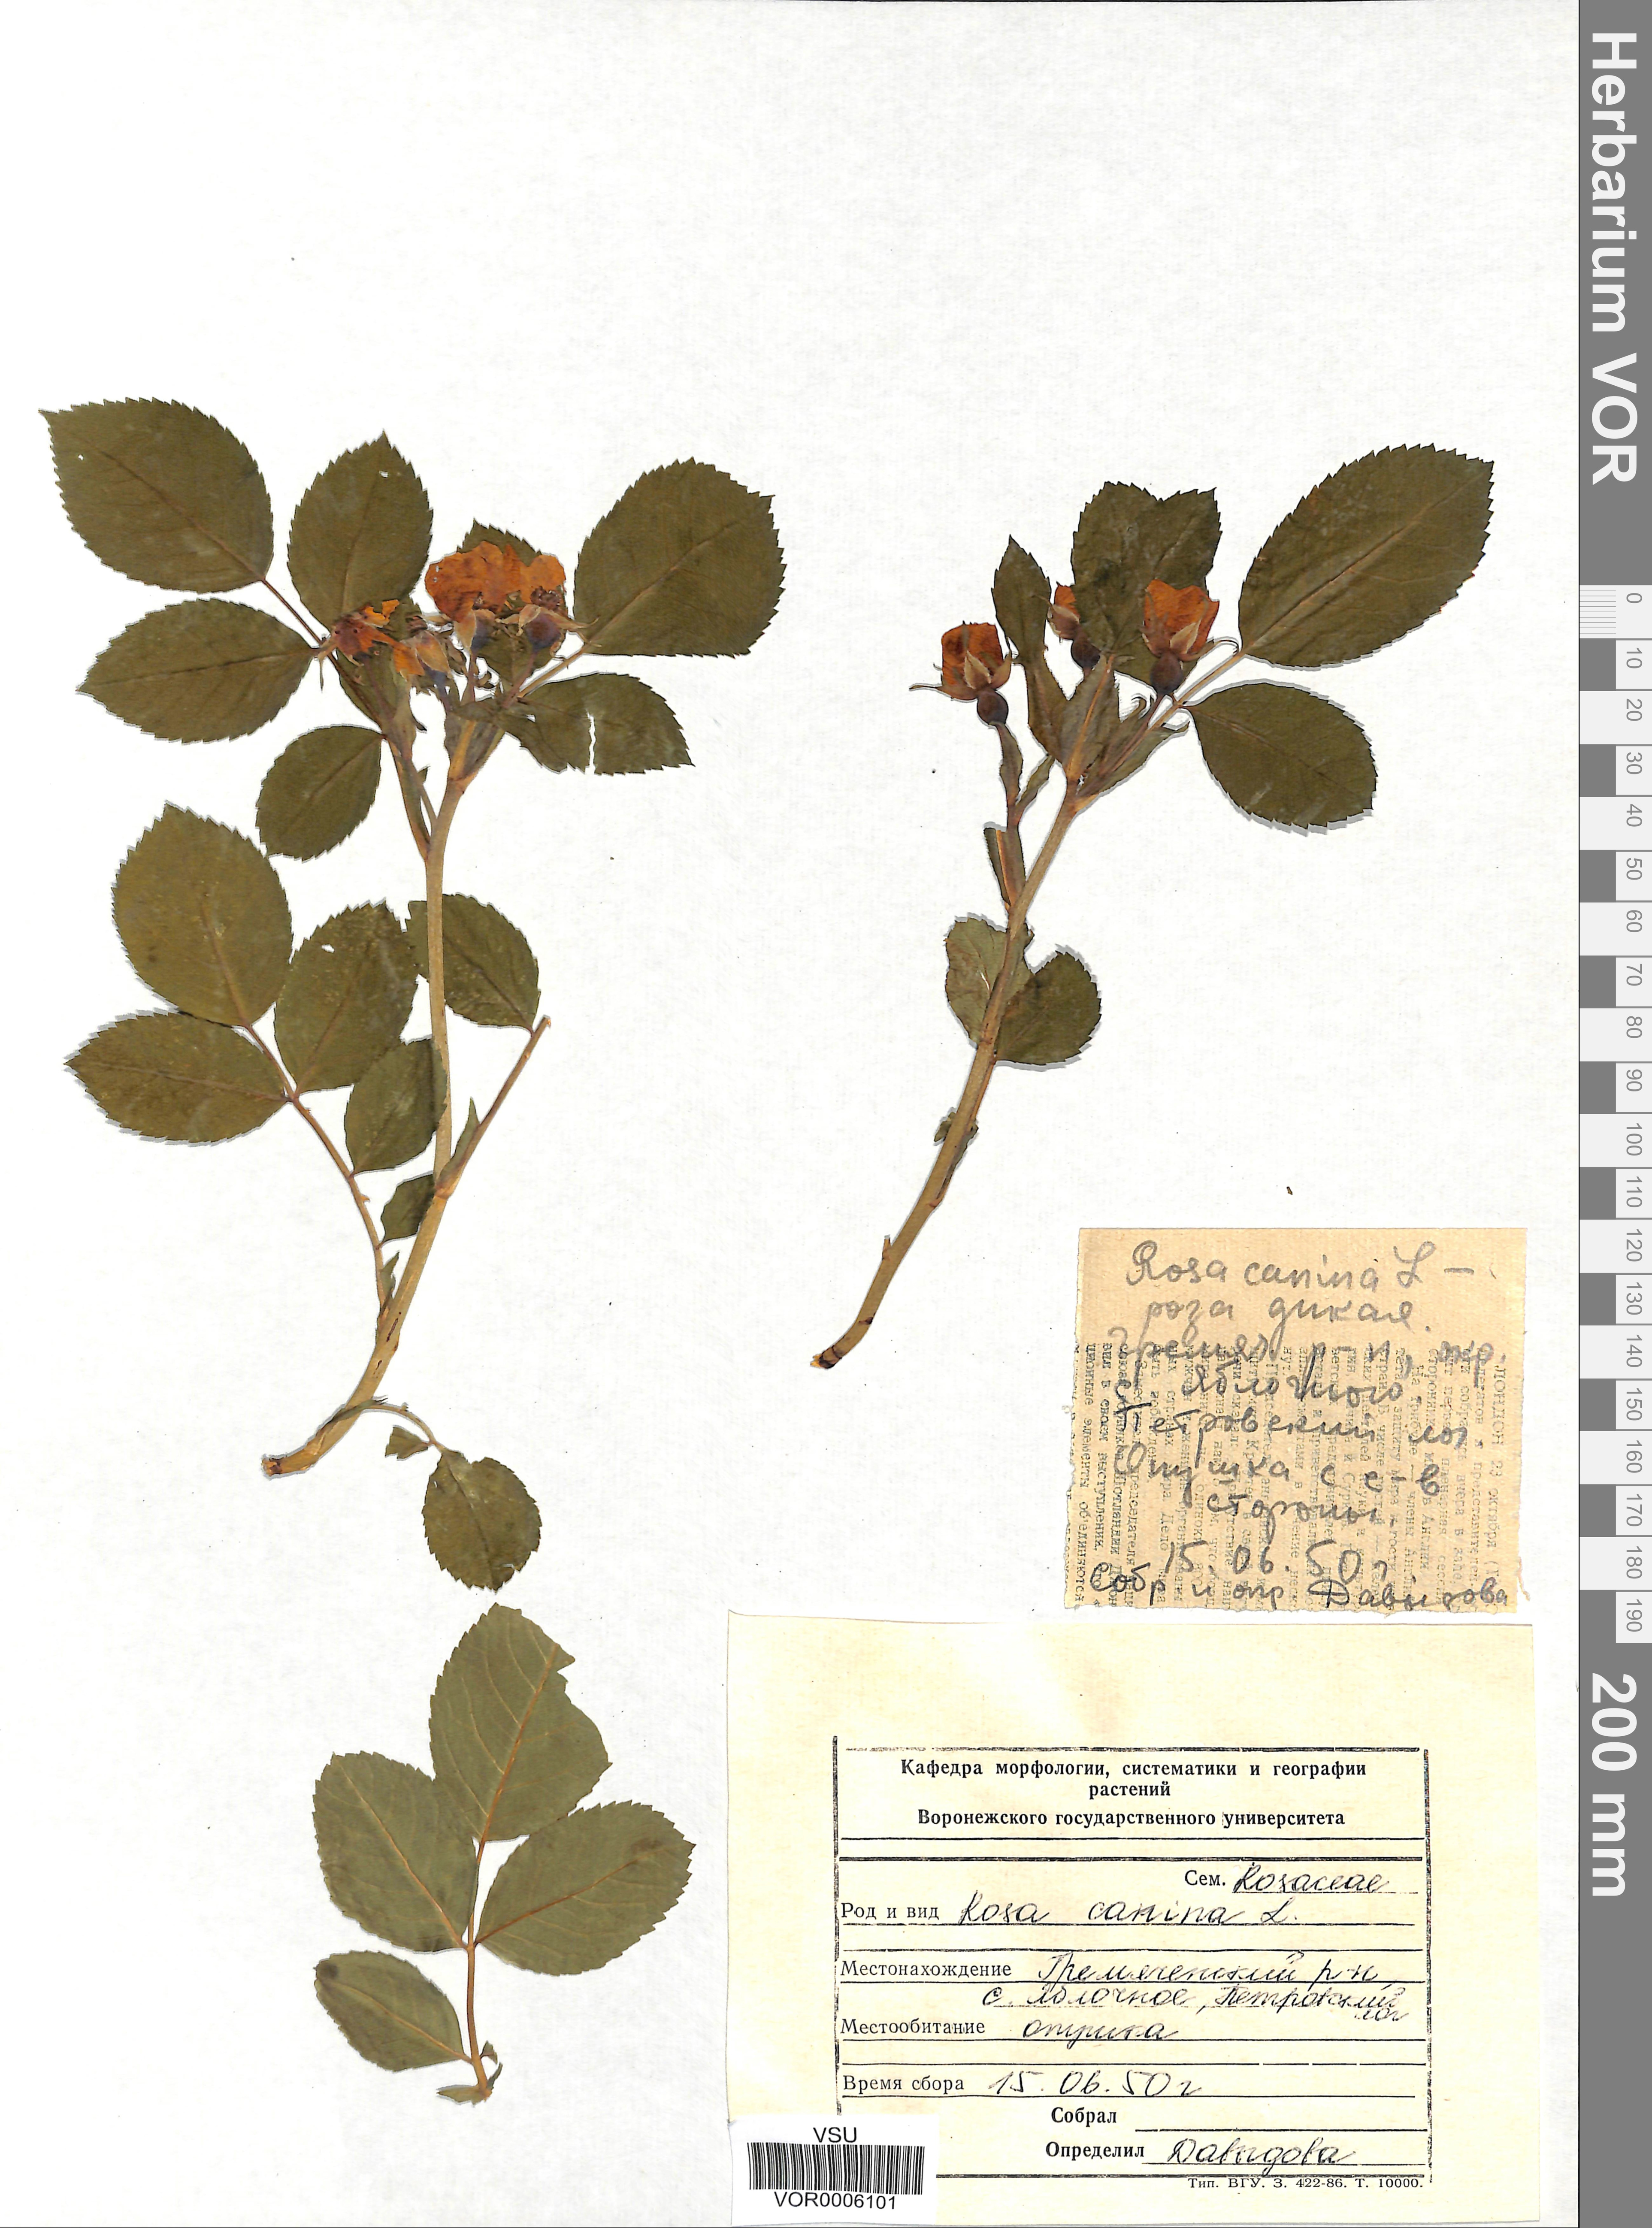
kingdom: Plantae
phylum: Tracheophyta
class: Magnoliopsida
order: Rosales
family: Rosaceae
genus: Rosa
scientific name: Rosa canina
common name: Dog rose
